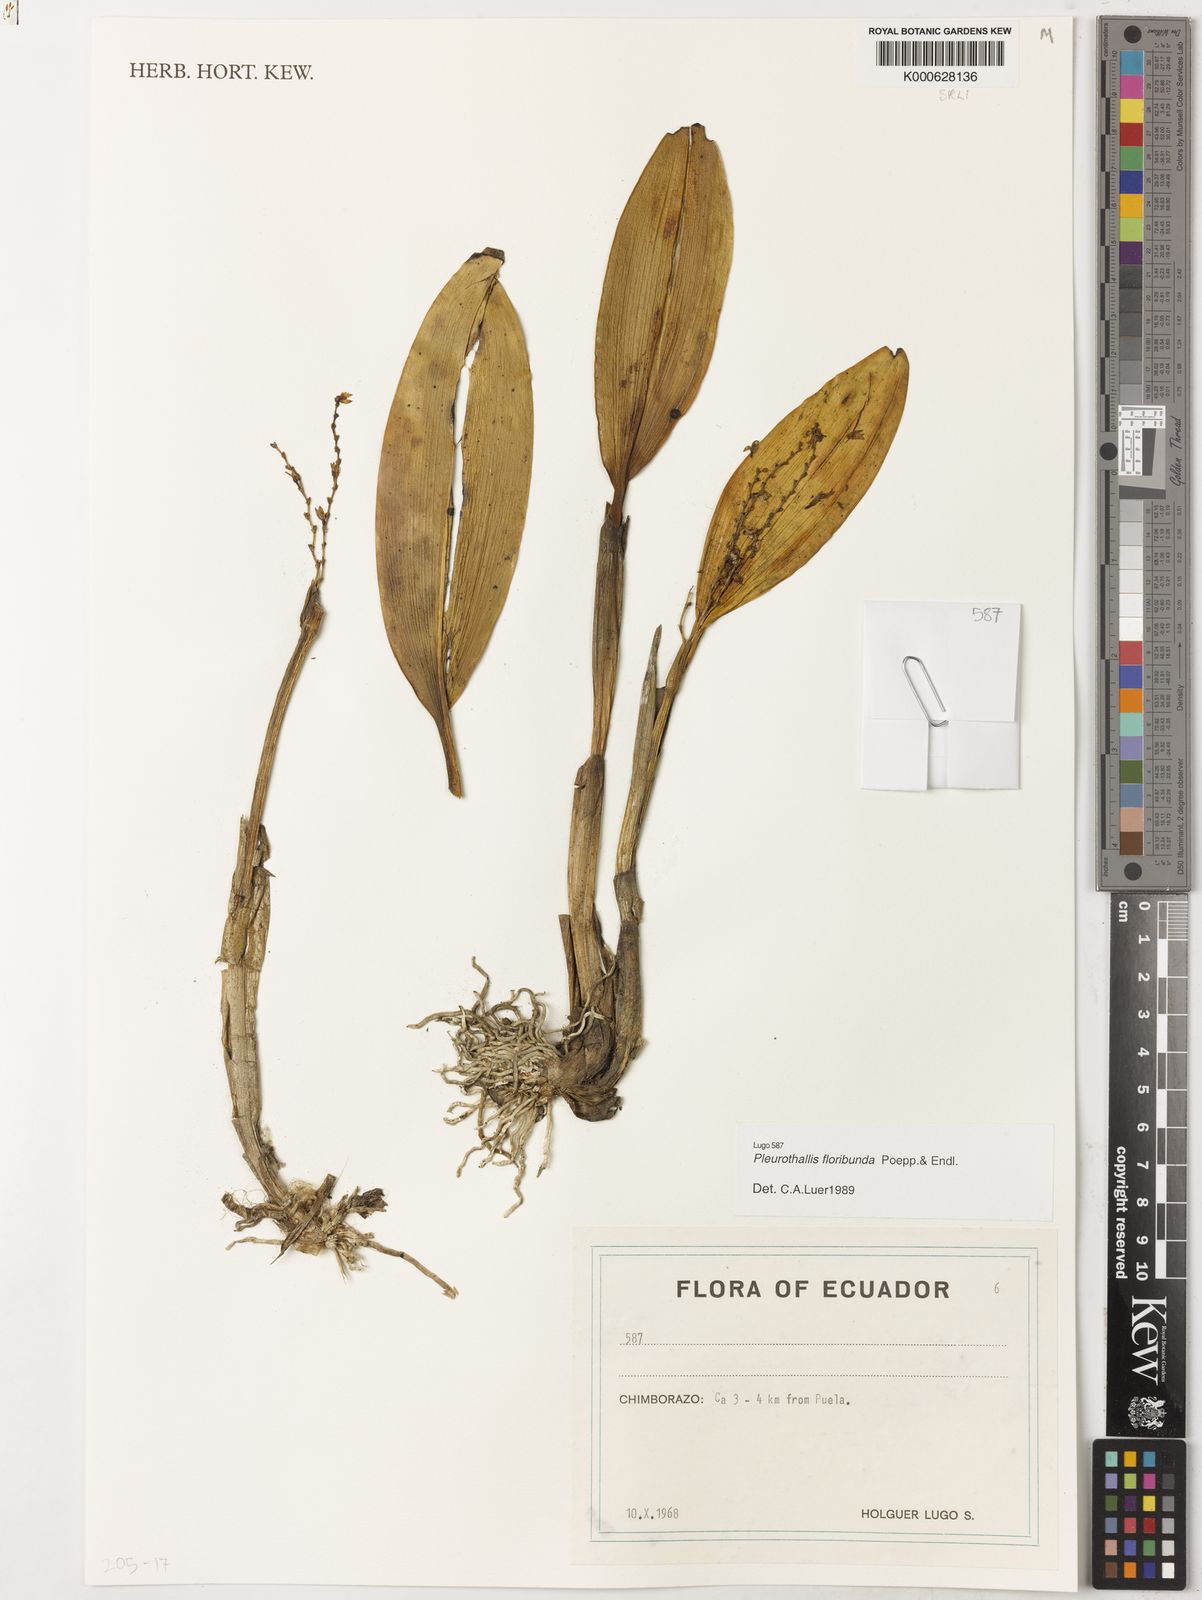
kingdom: Plantae
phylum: Tracheophyta
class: Liliopsida
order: Asparagales
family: Orchidaceae
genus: Pleurothallis
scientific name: Pleurothallis
